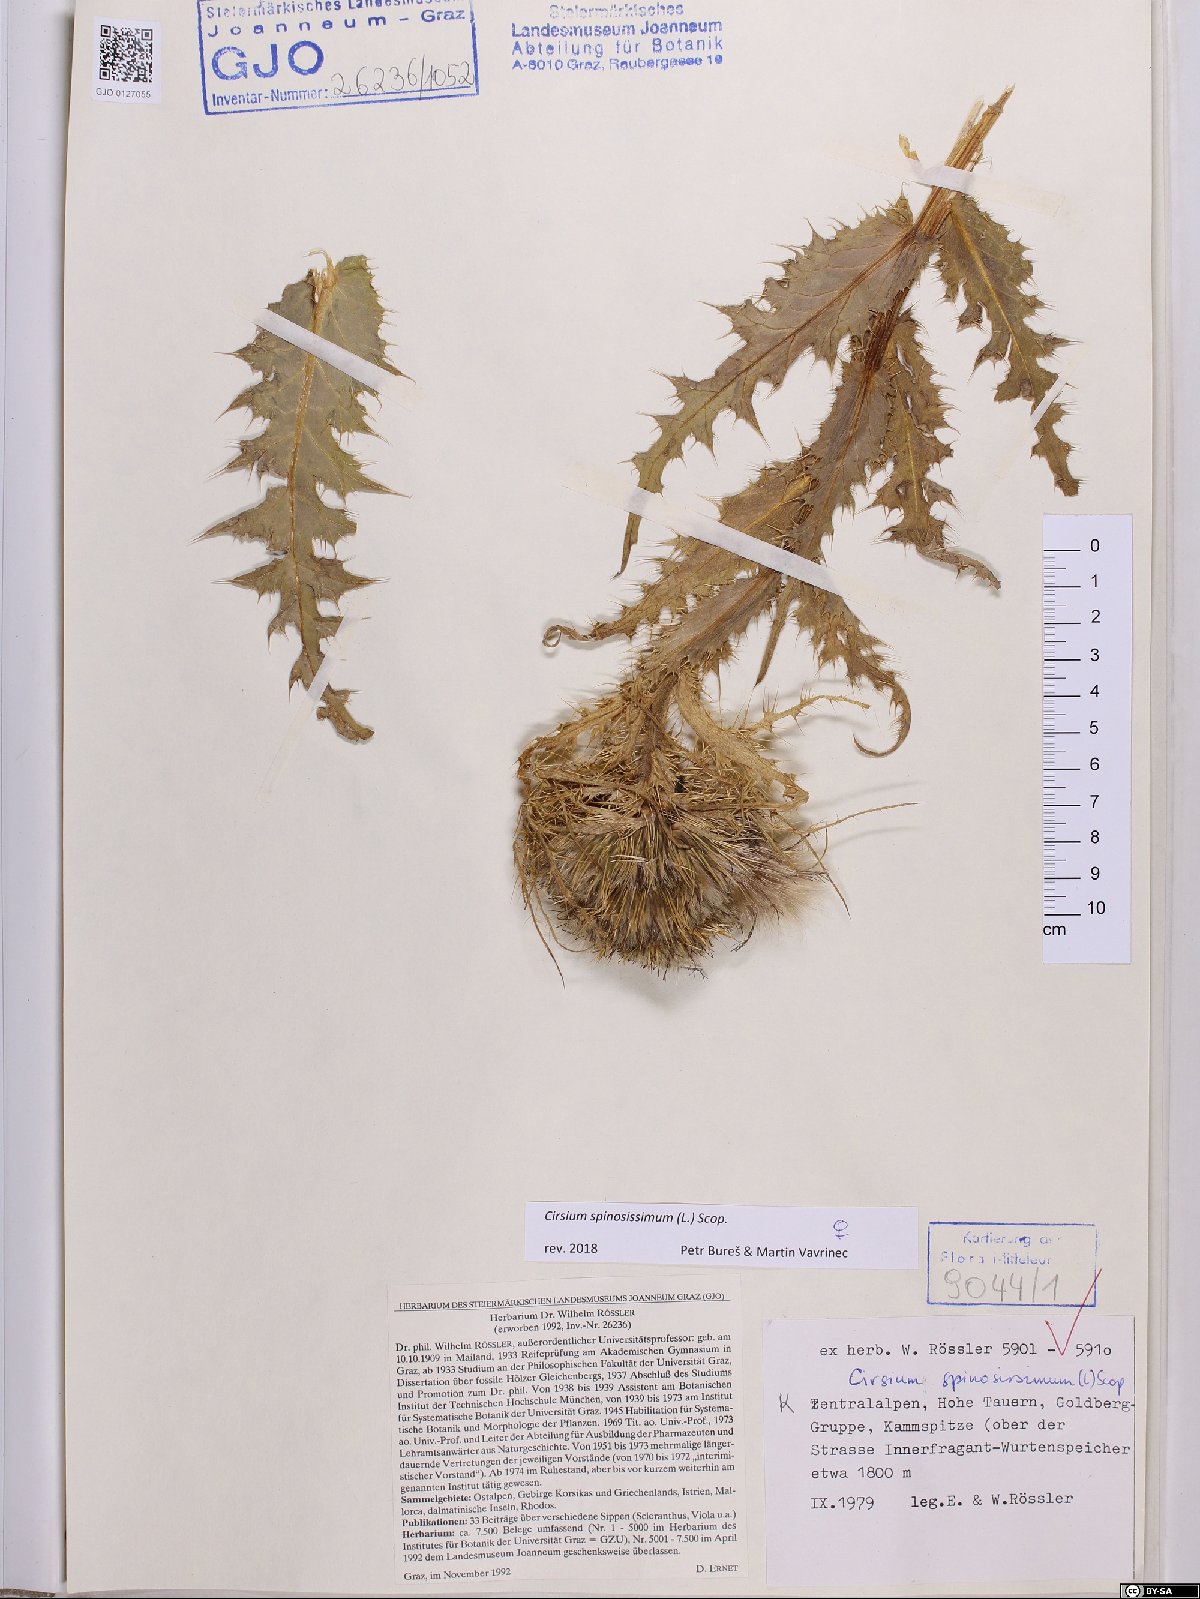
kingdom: Plantae
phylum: Tracheophyta
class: Magnoliopsida
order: Asterales
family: Asteraceae
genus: Cirsium
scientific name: Cirsium spinosissimum
